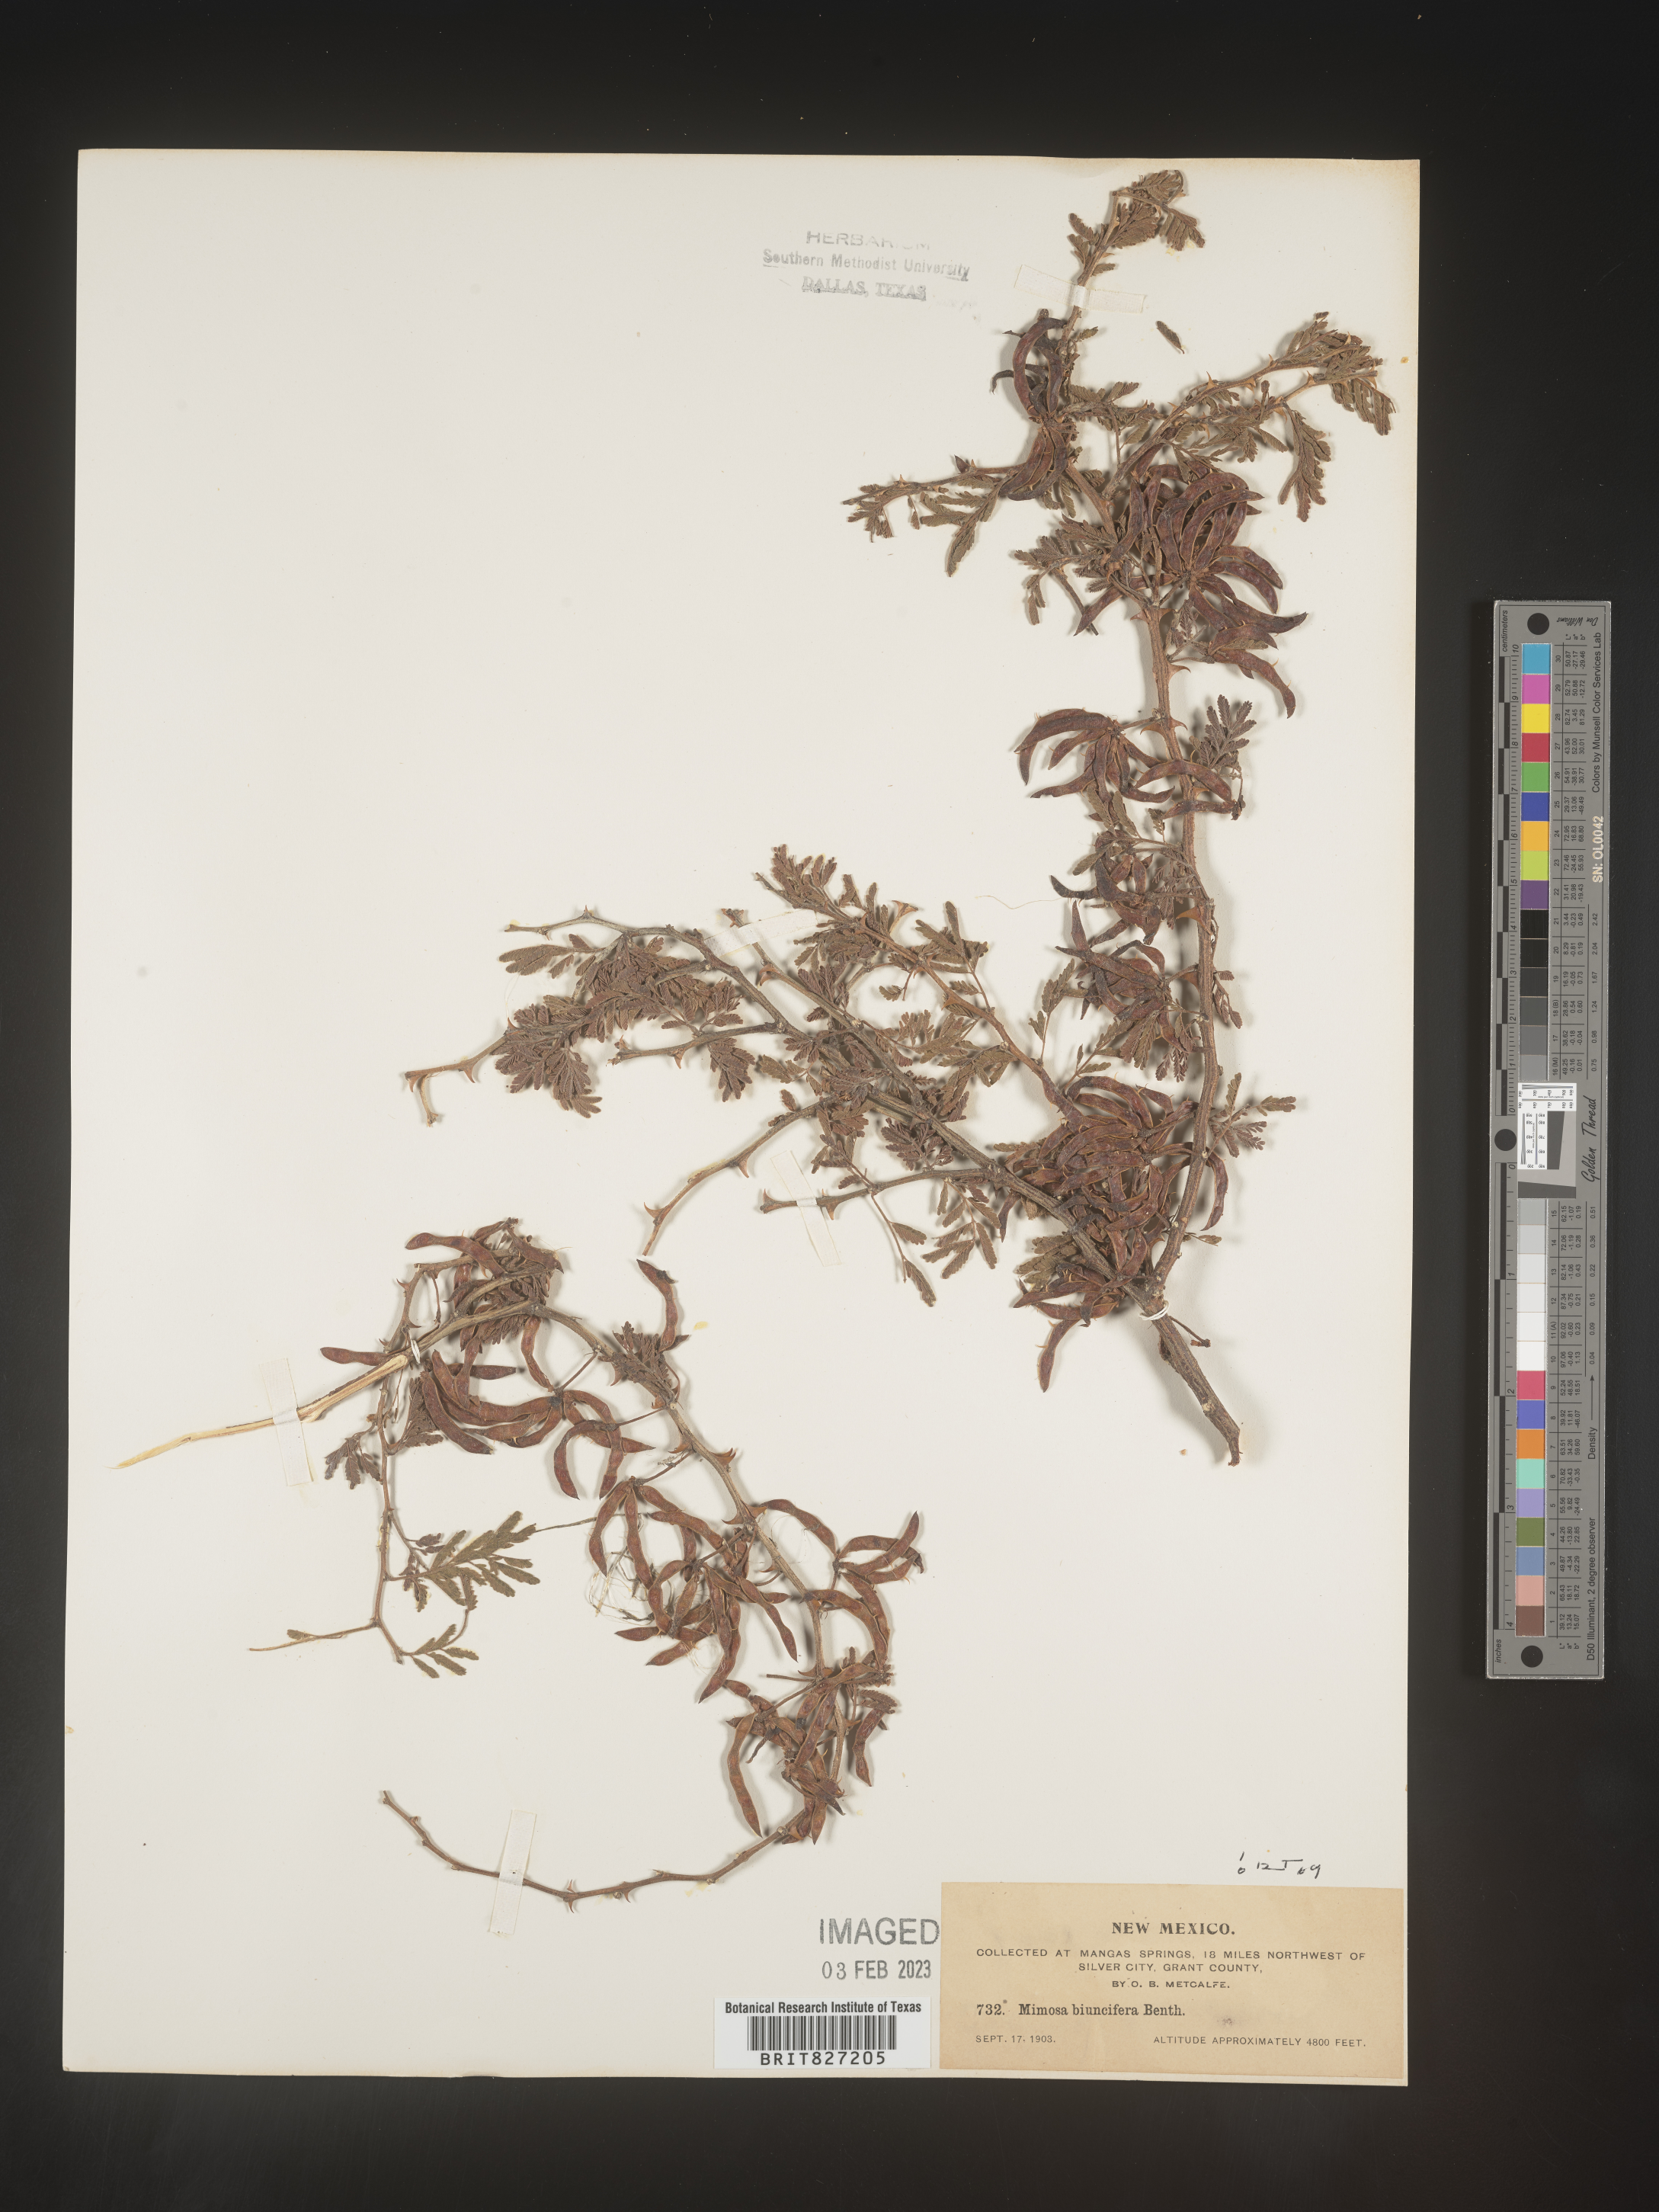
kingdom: Plantae
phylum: Tracheophyta
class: Magnoliopsida
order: Fabales
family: Fabaceae
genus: Mimosa
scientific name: Mimosa aculeaticarpa
